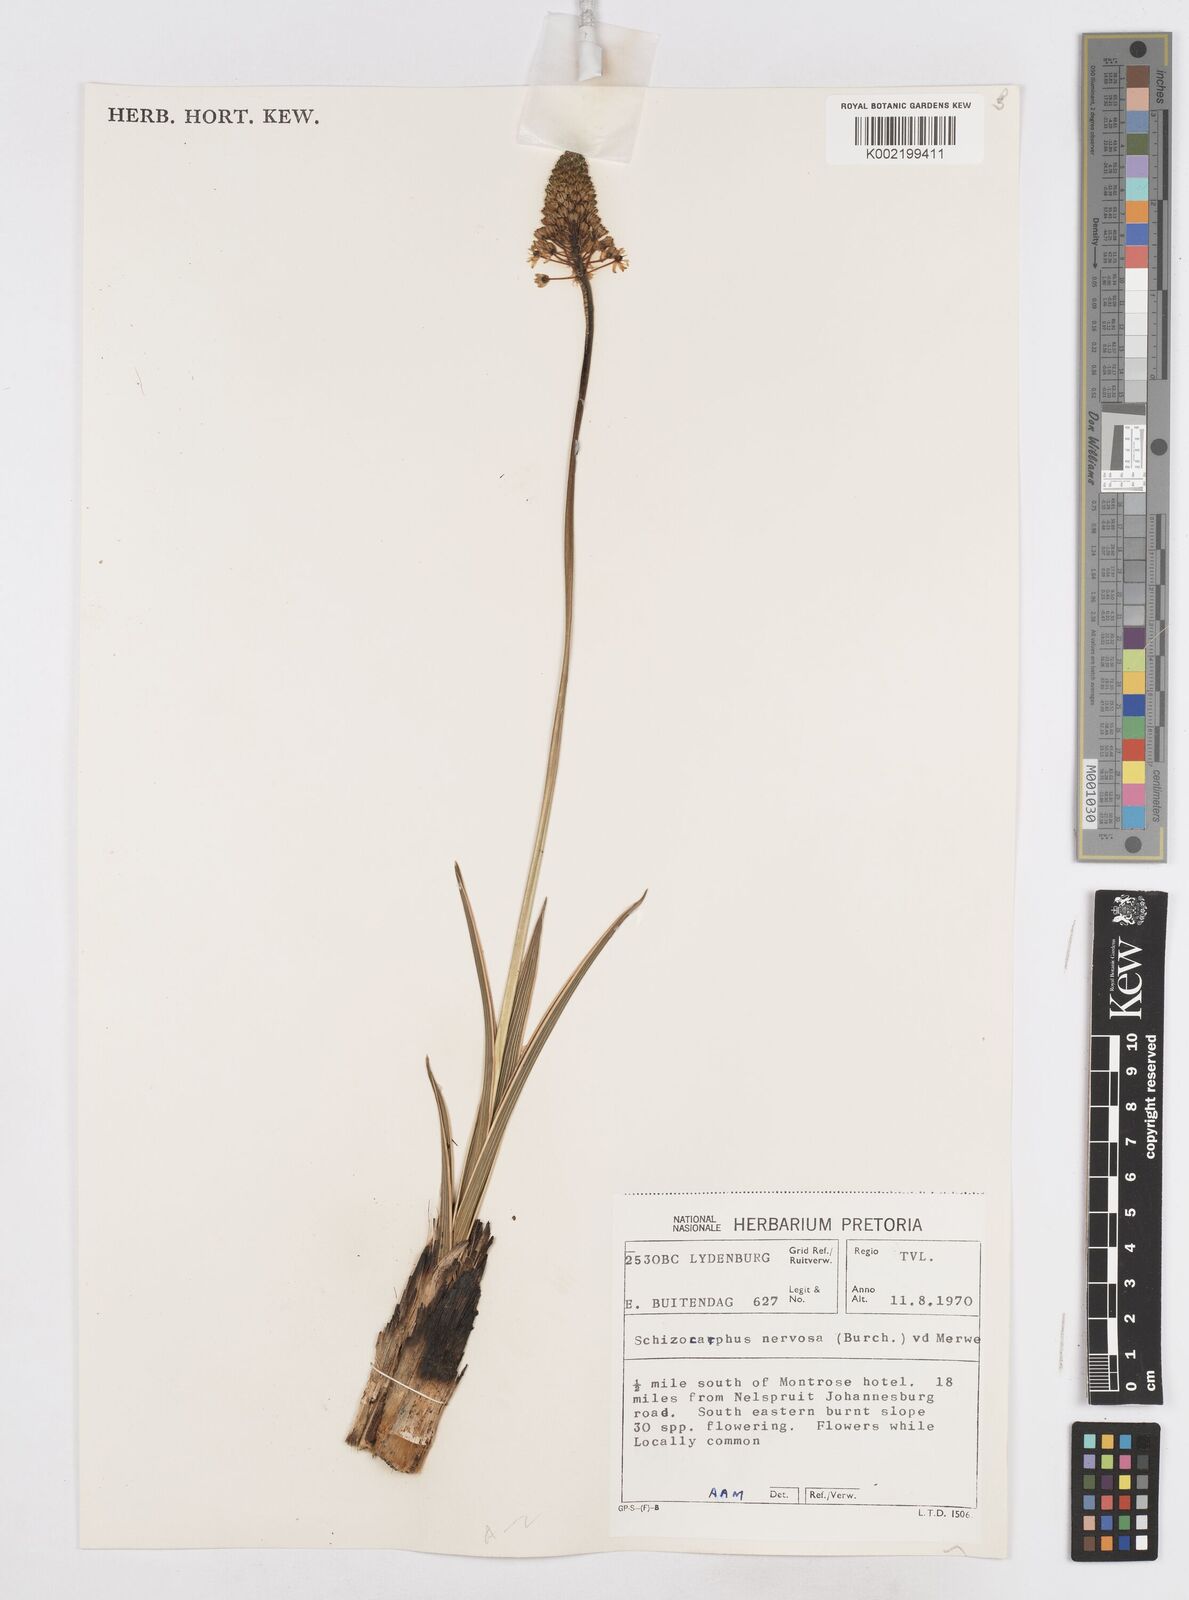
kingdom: Plantae
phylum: Tracheophyta
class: Liliopsida
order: Asparagales
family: Asparagaceae
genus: Schizocarphus
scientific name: Schizocarphus nervosus
